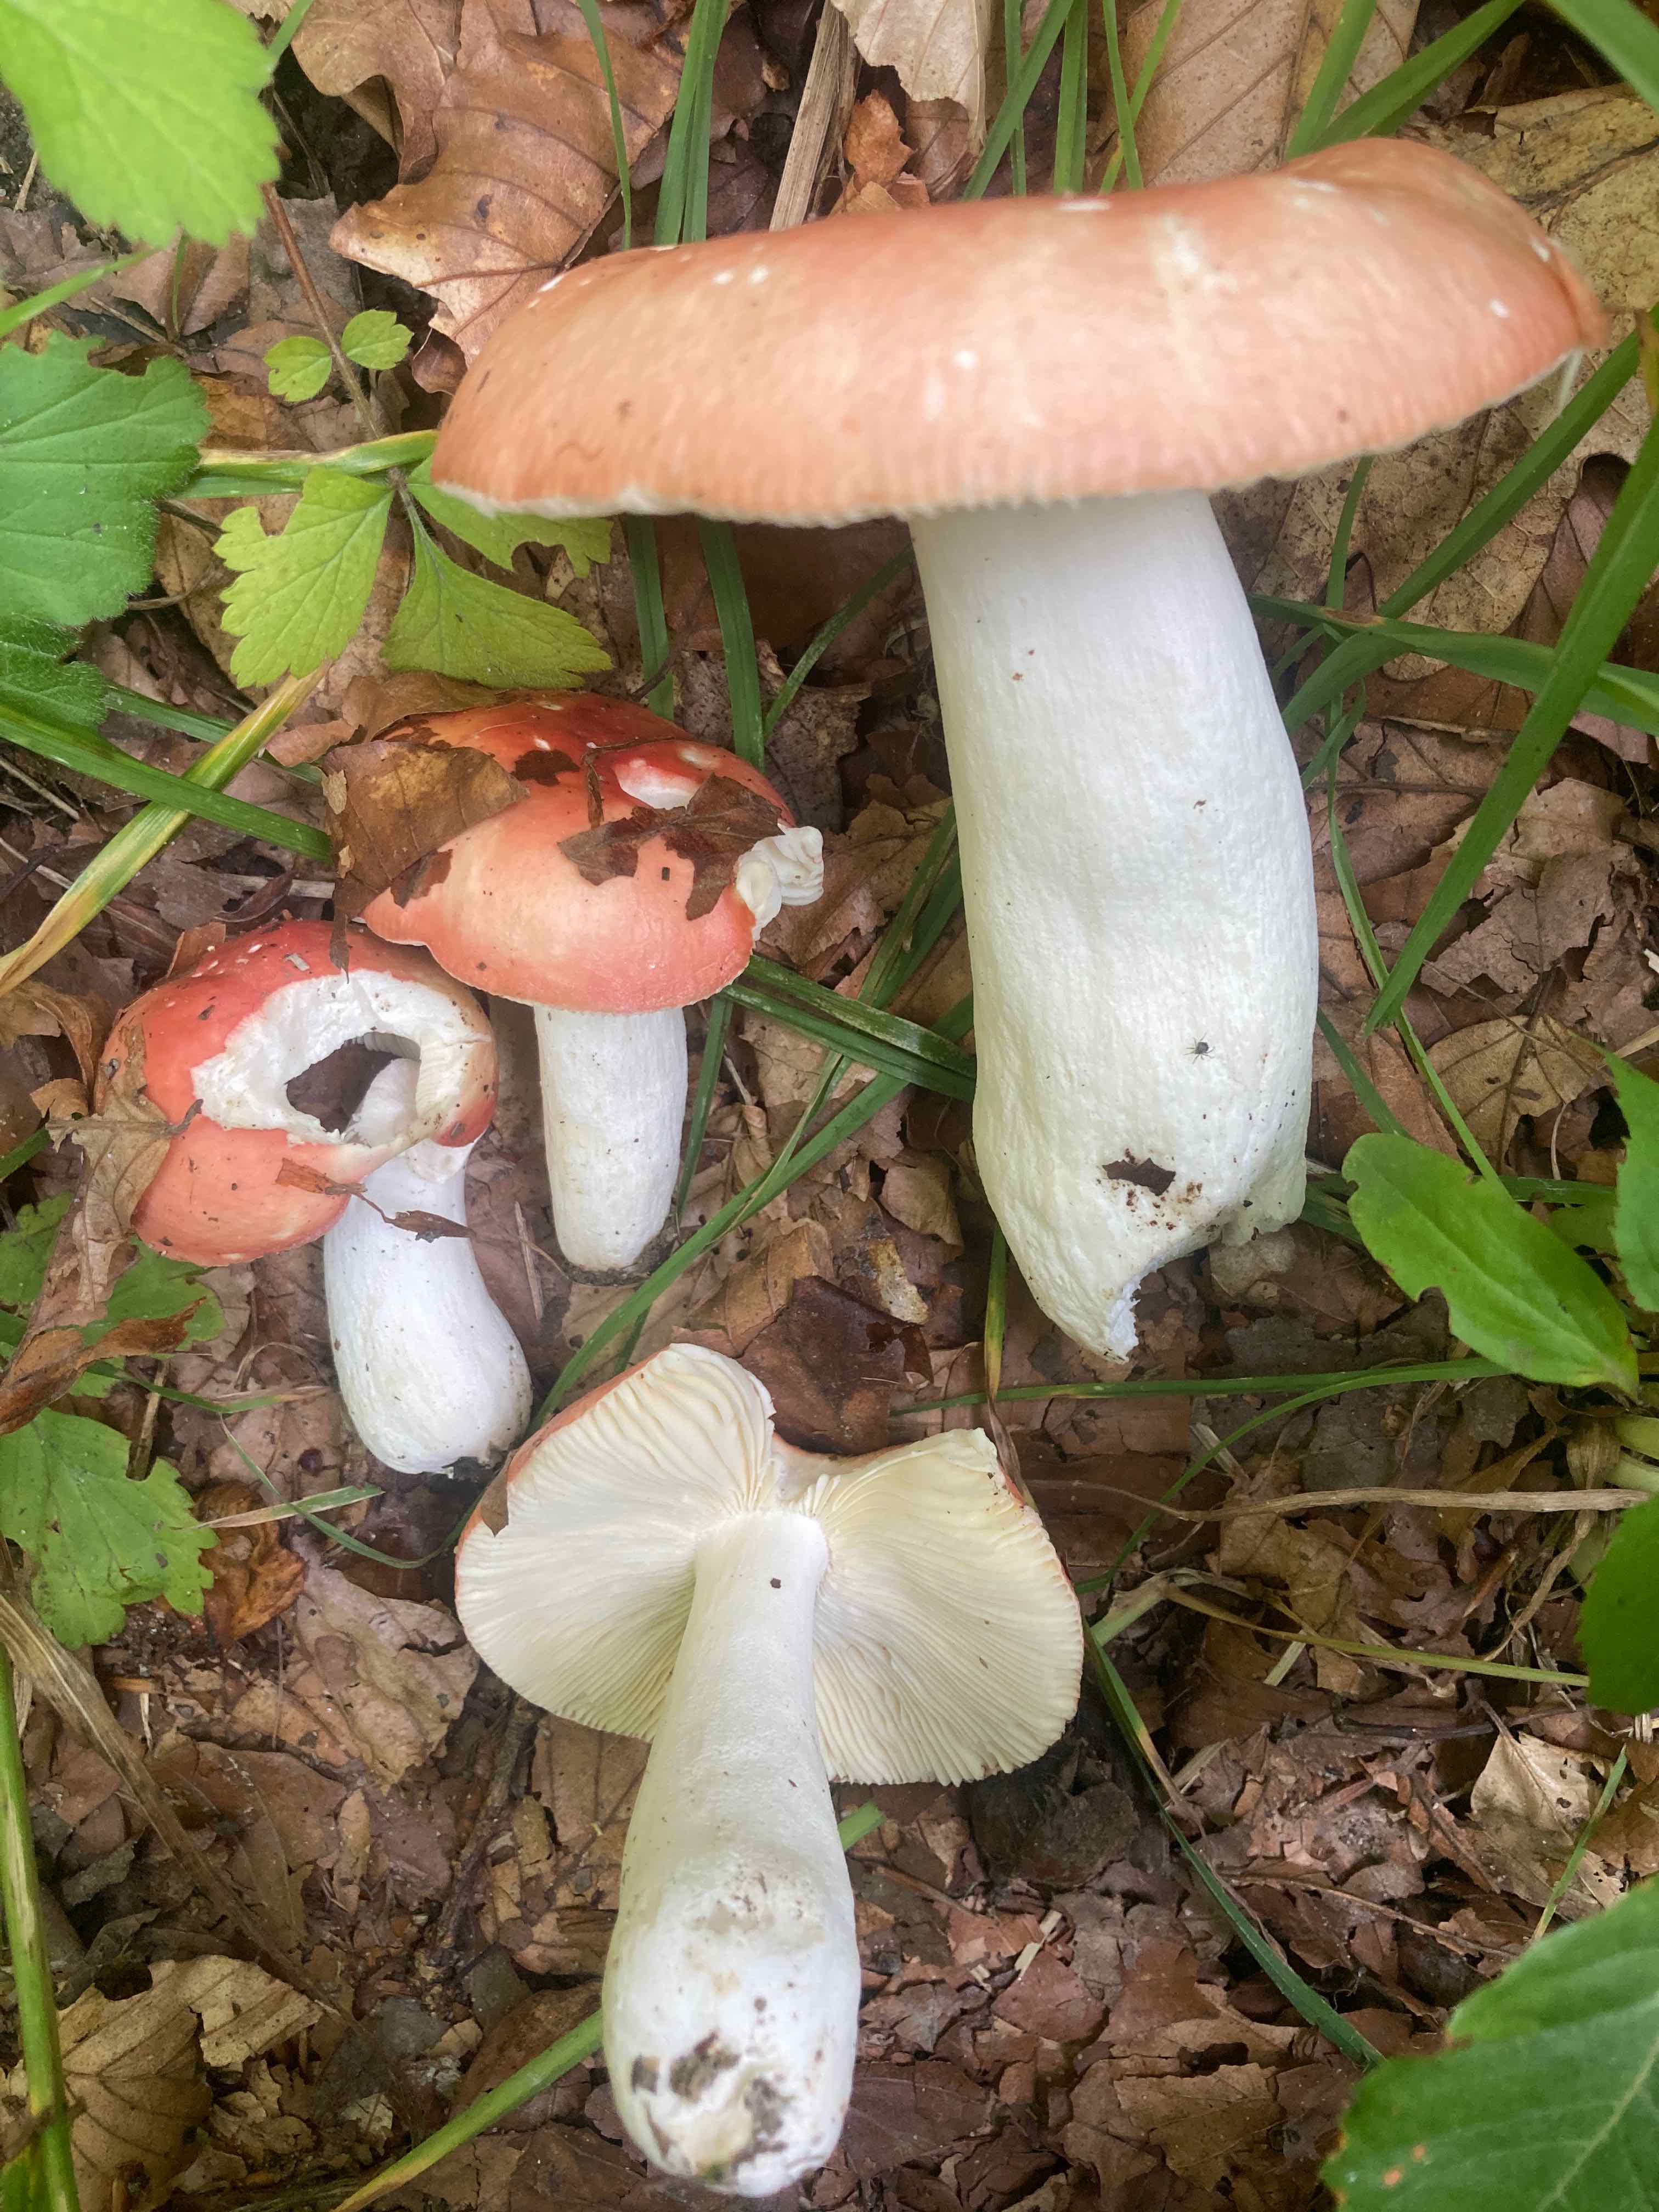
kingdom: Fungi
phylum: Basidiomycota
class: Agaricomycetes
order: Russulales
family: Russulaceae
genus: Russula
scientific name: Russula pseudointegra
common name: cinnoberrød skørhat
